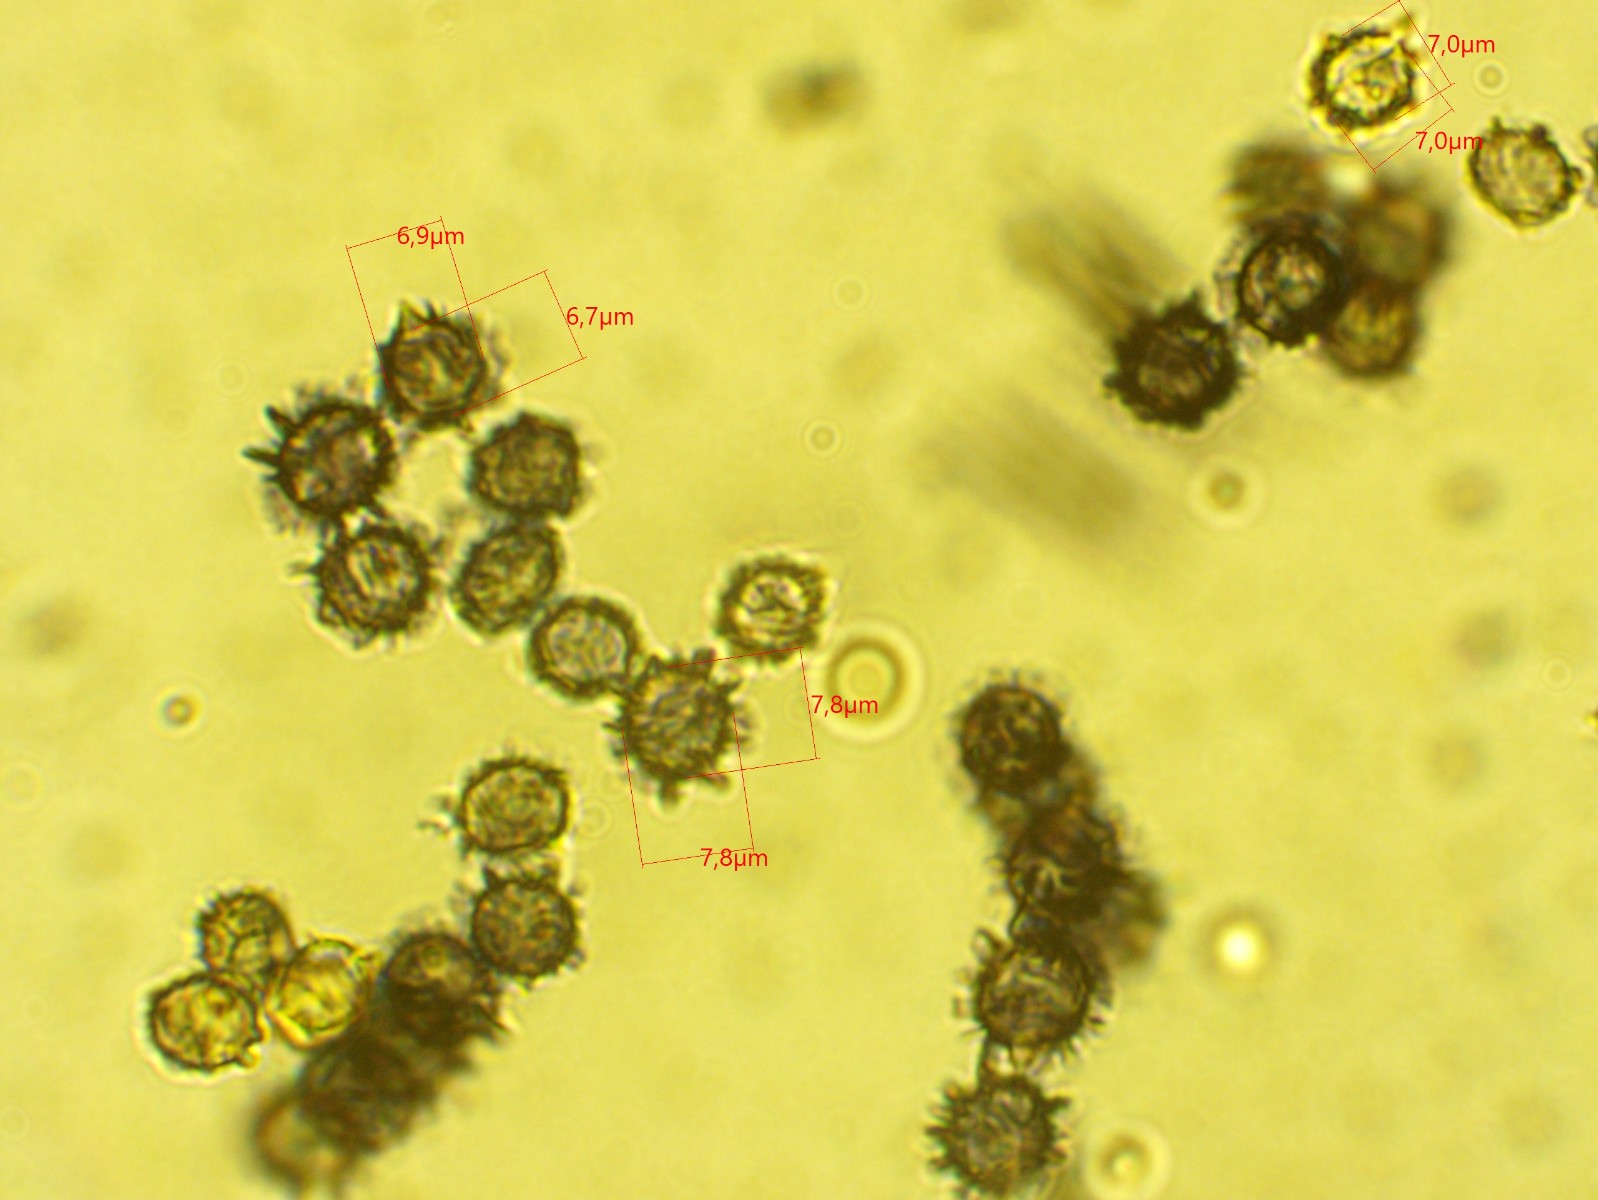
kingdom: Fungi
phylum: Basidiomycota
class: Agaricomycetes
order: Russulales
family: Russulaceae
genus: Lactarius
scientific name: Lactarius azonites
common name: røggrå mælkehat
